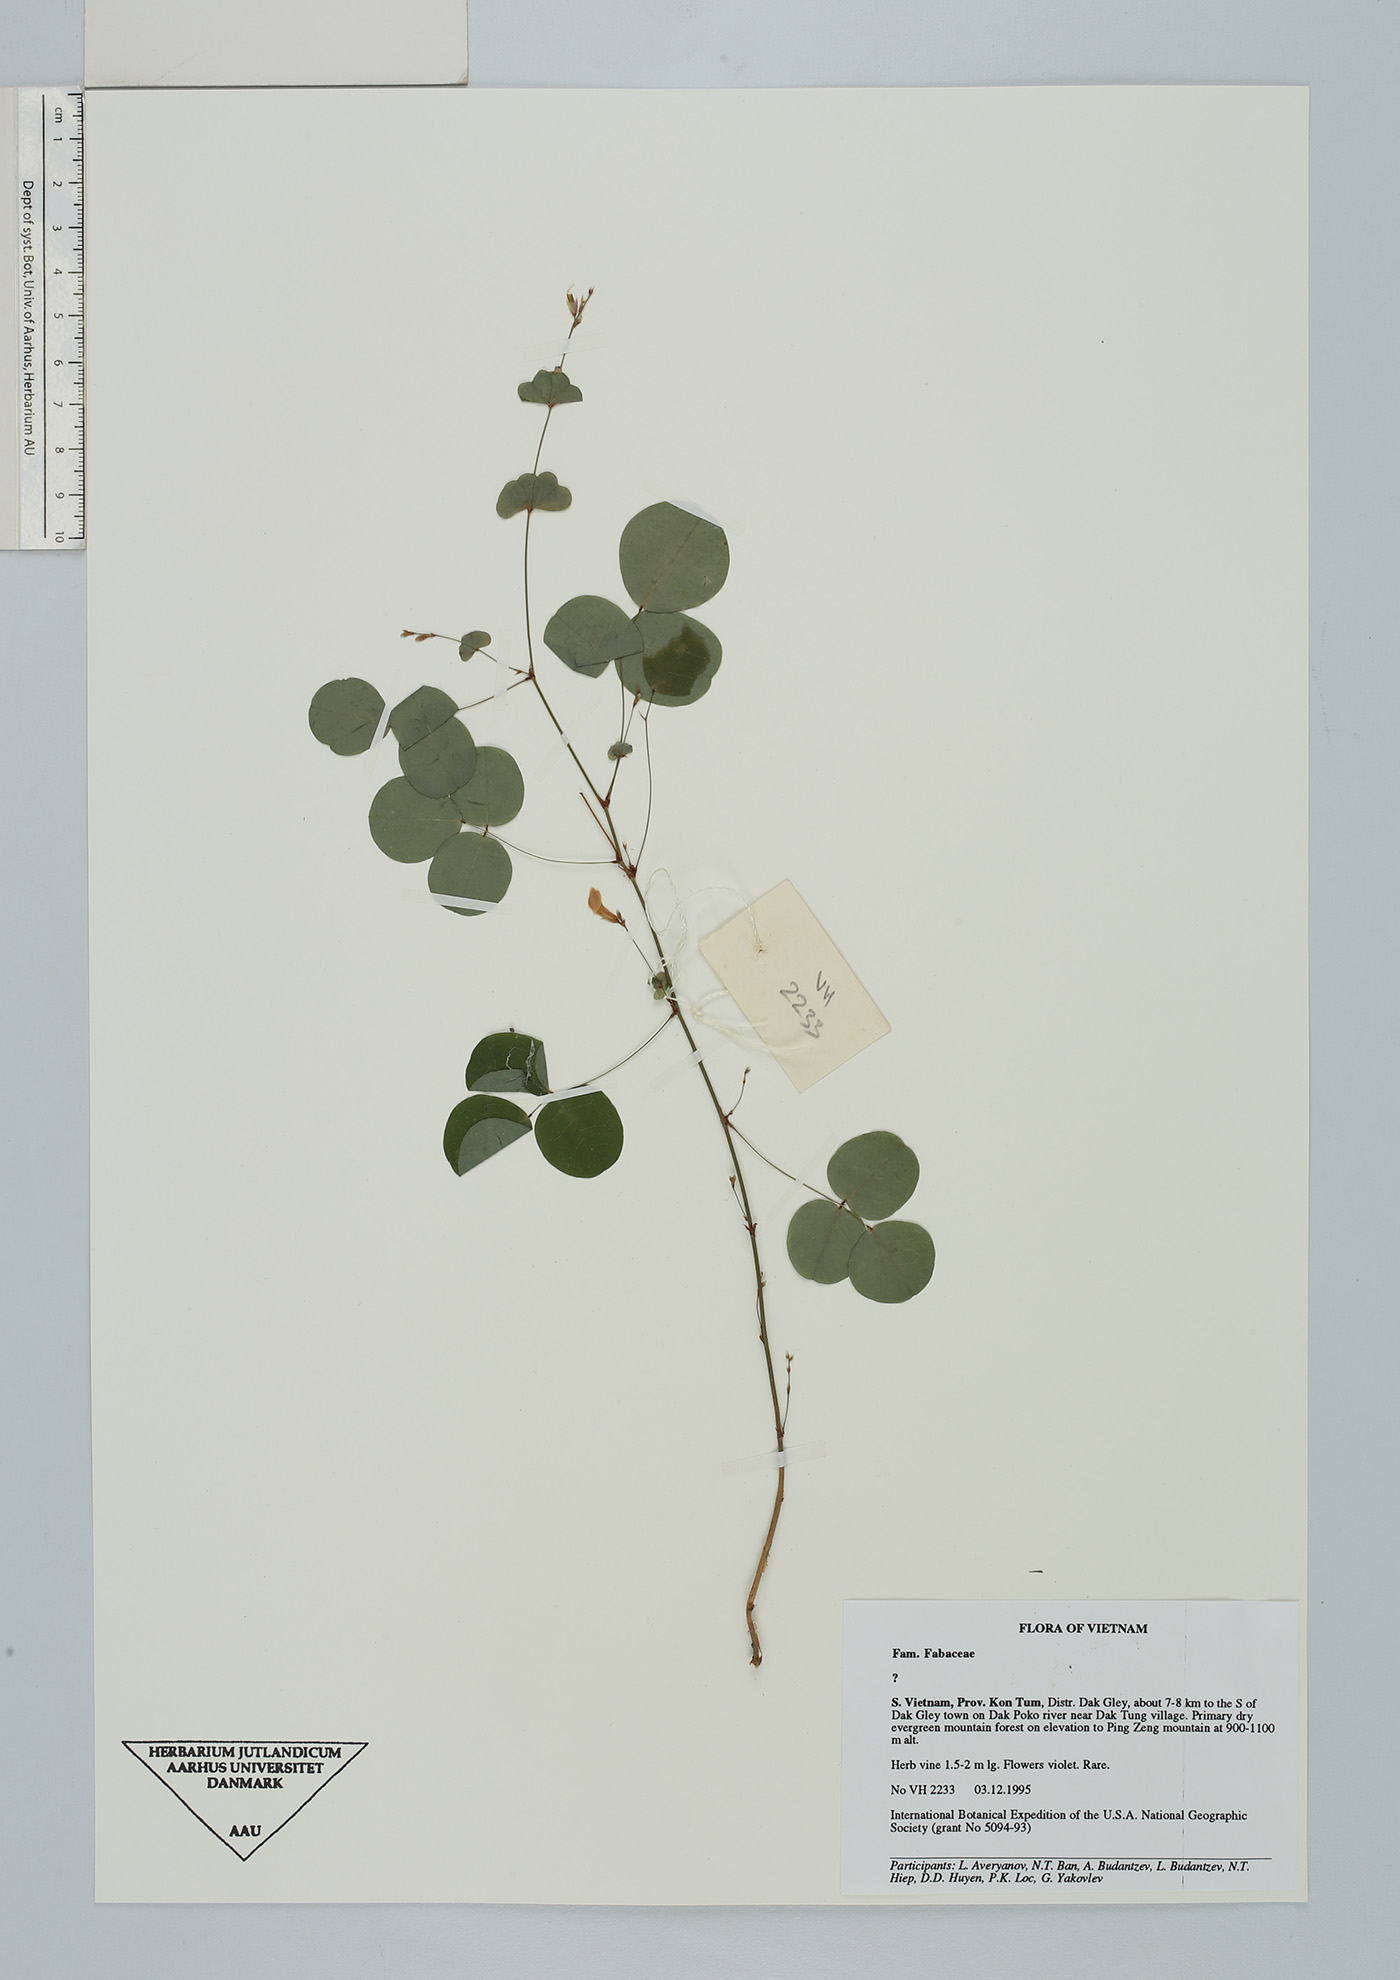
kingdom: Plantae
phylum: Tracheophyta
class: Magnoliopsida
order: Fabales
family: Fabaceae
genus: Shuteria
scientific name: Shuteria suffulta
